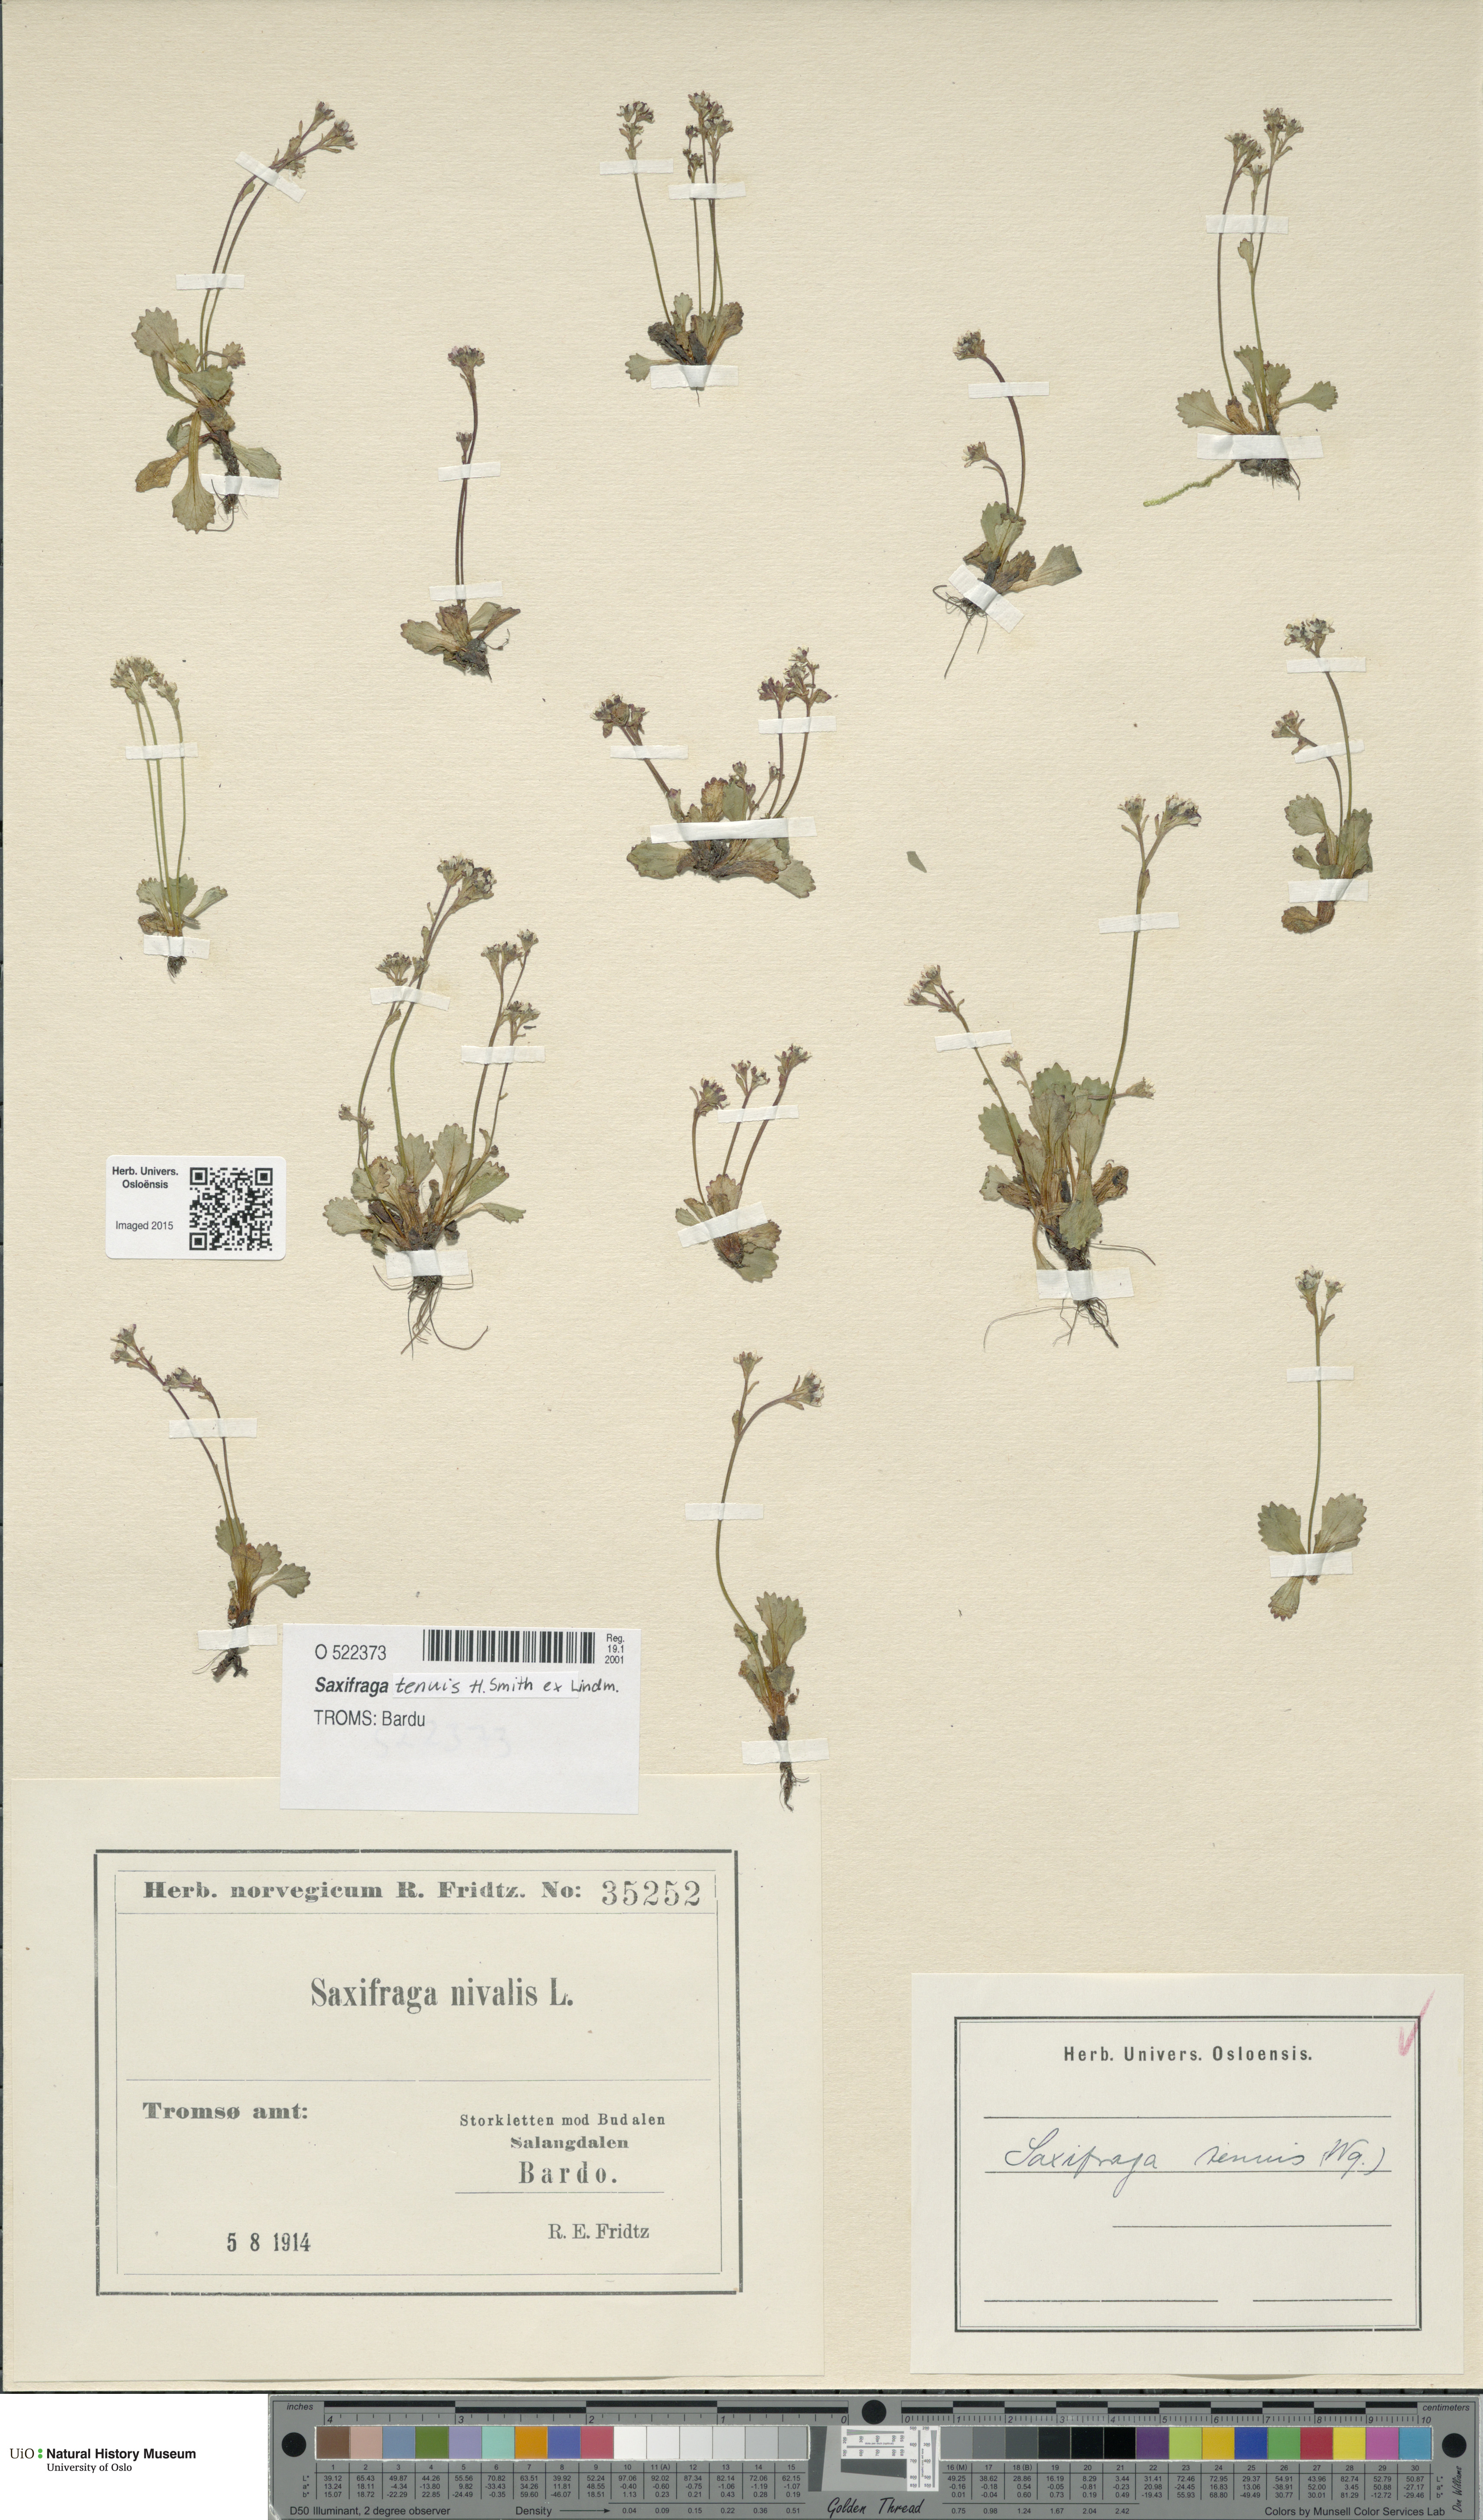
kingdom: Plantae
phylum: Tracheophyta
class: Magnoliopsida
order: Saxifragales
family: Saxifragaceae
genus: Micranthes
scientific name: Micranthes tenuis
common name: Ottertail pass saxifrage
